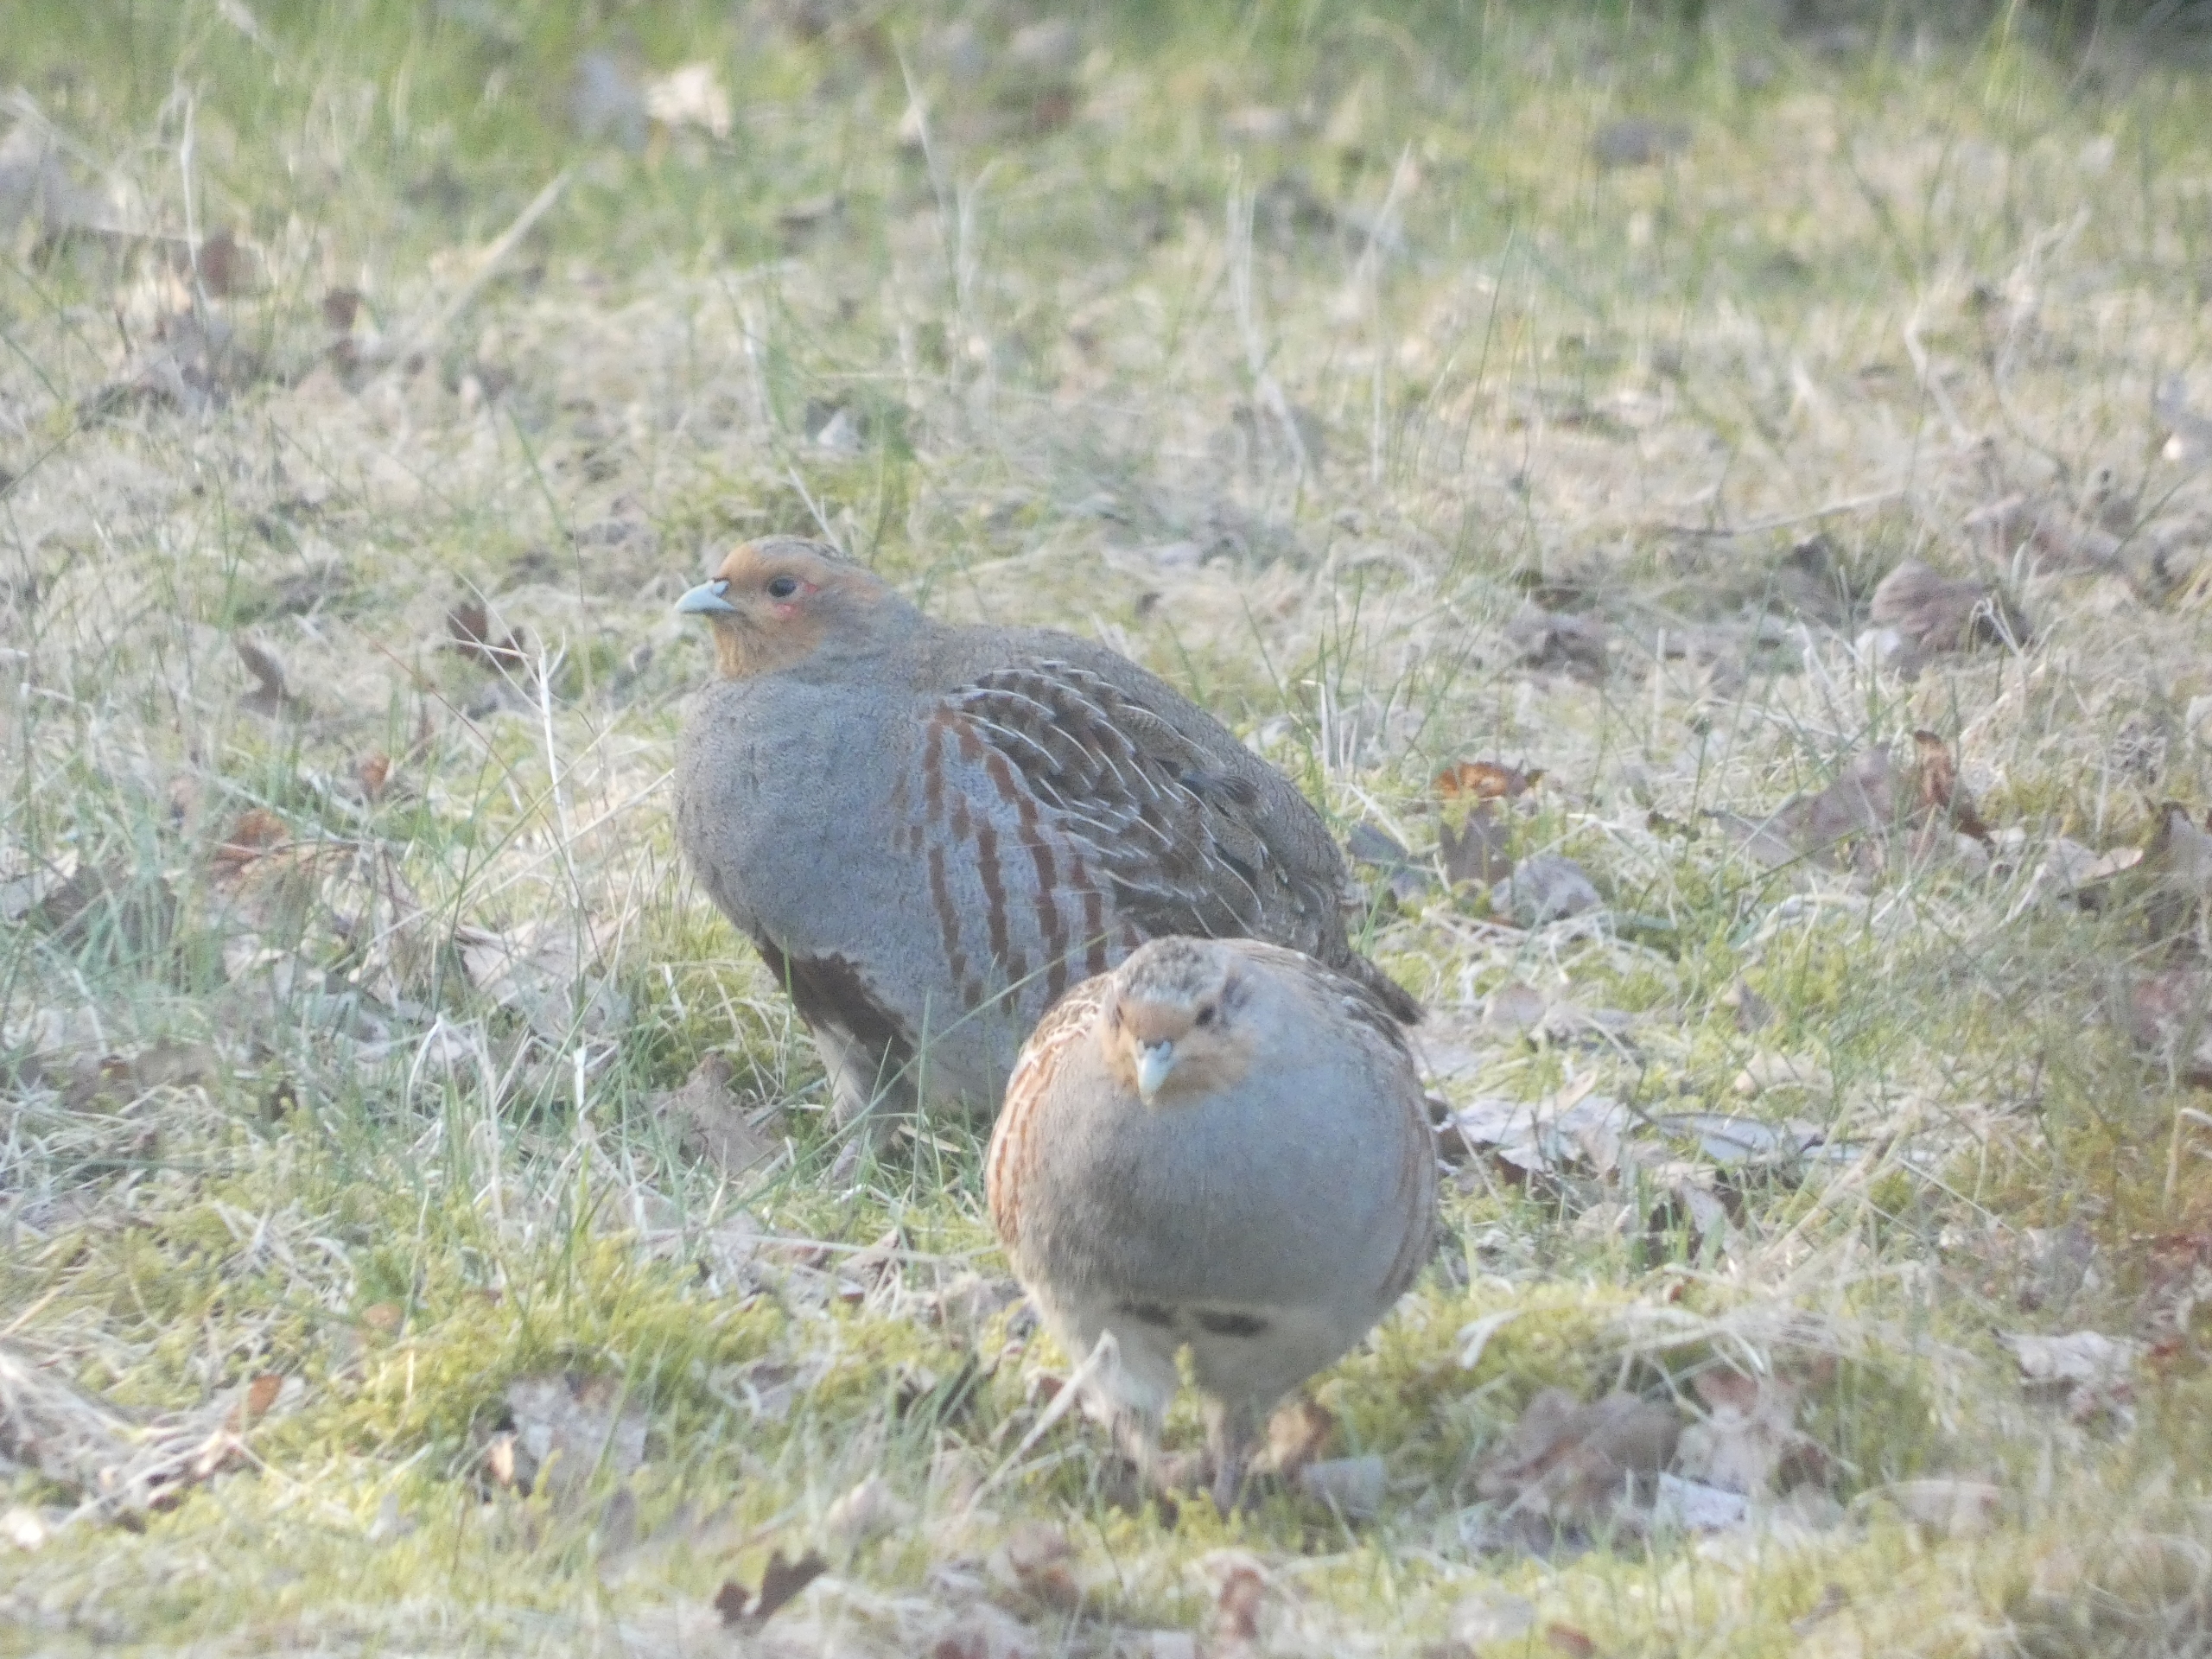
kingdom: Animalia
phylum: Chordata
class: Aves
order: Galliformes
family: Phasianidae
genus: Perdix
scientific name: Perdix perdix
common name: Agerhøne
